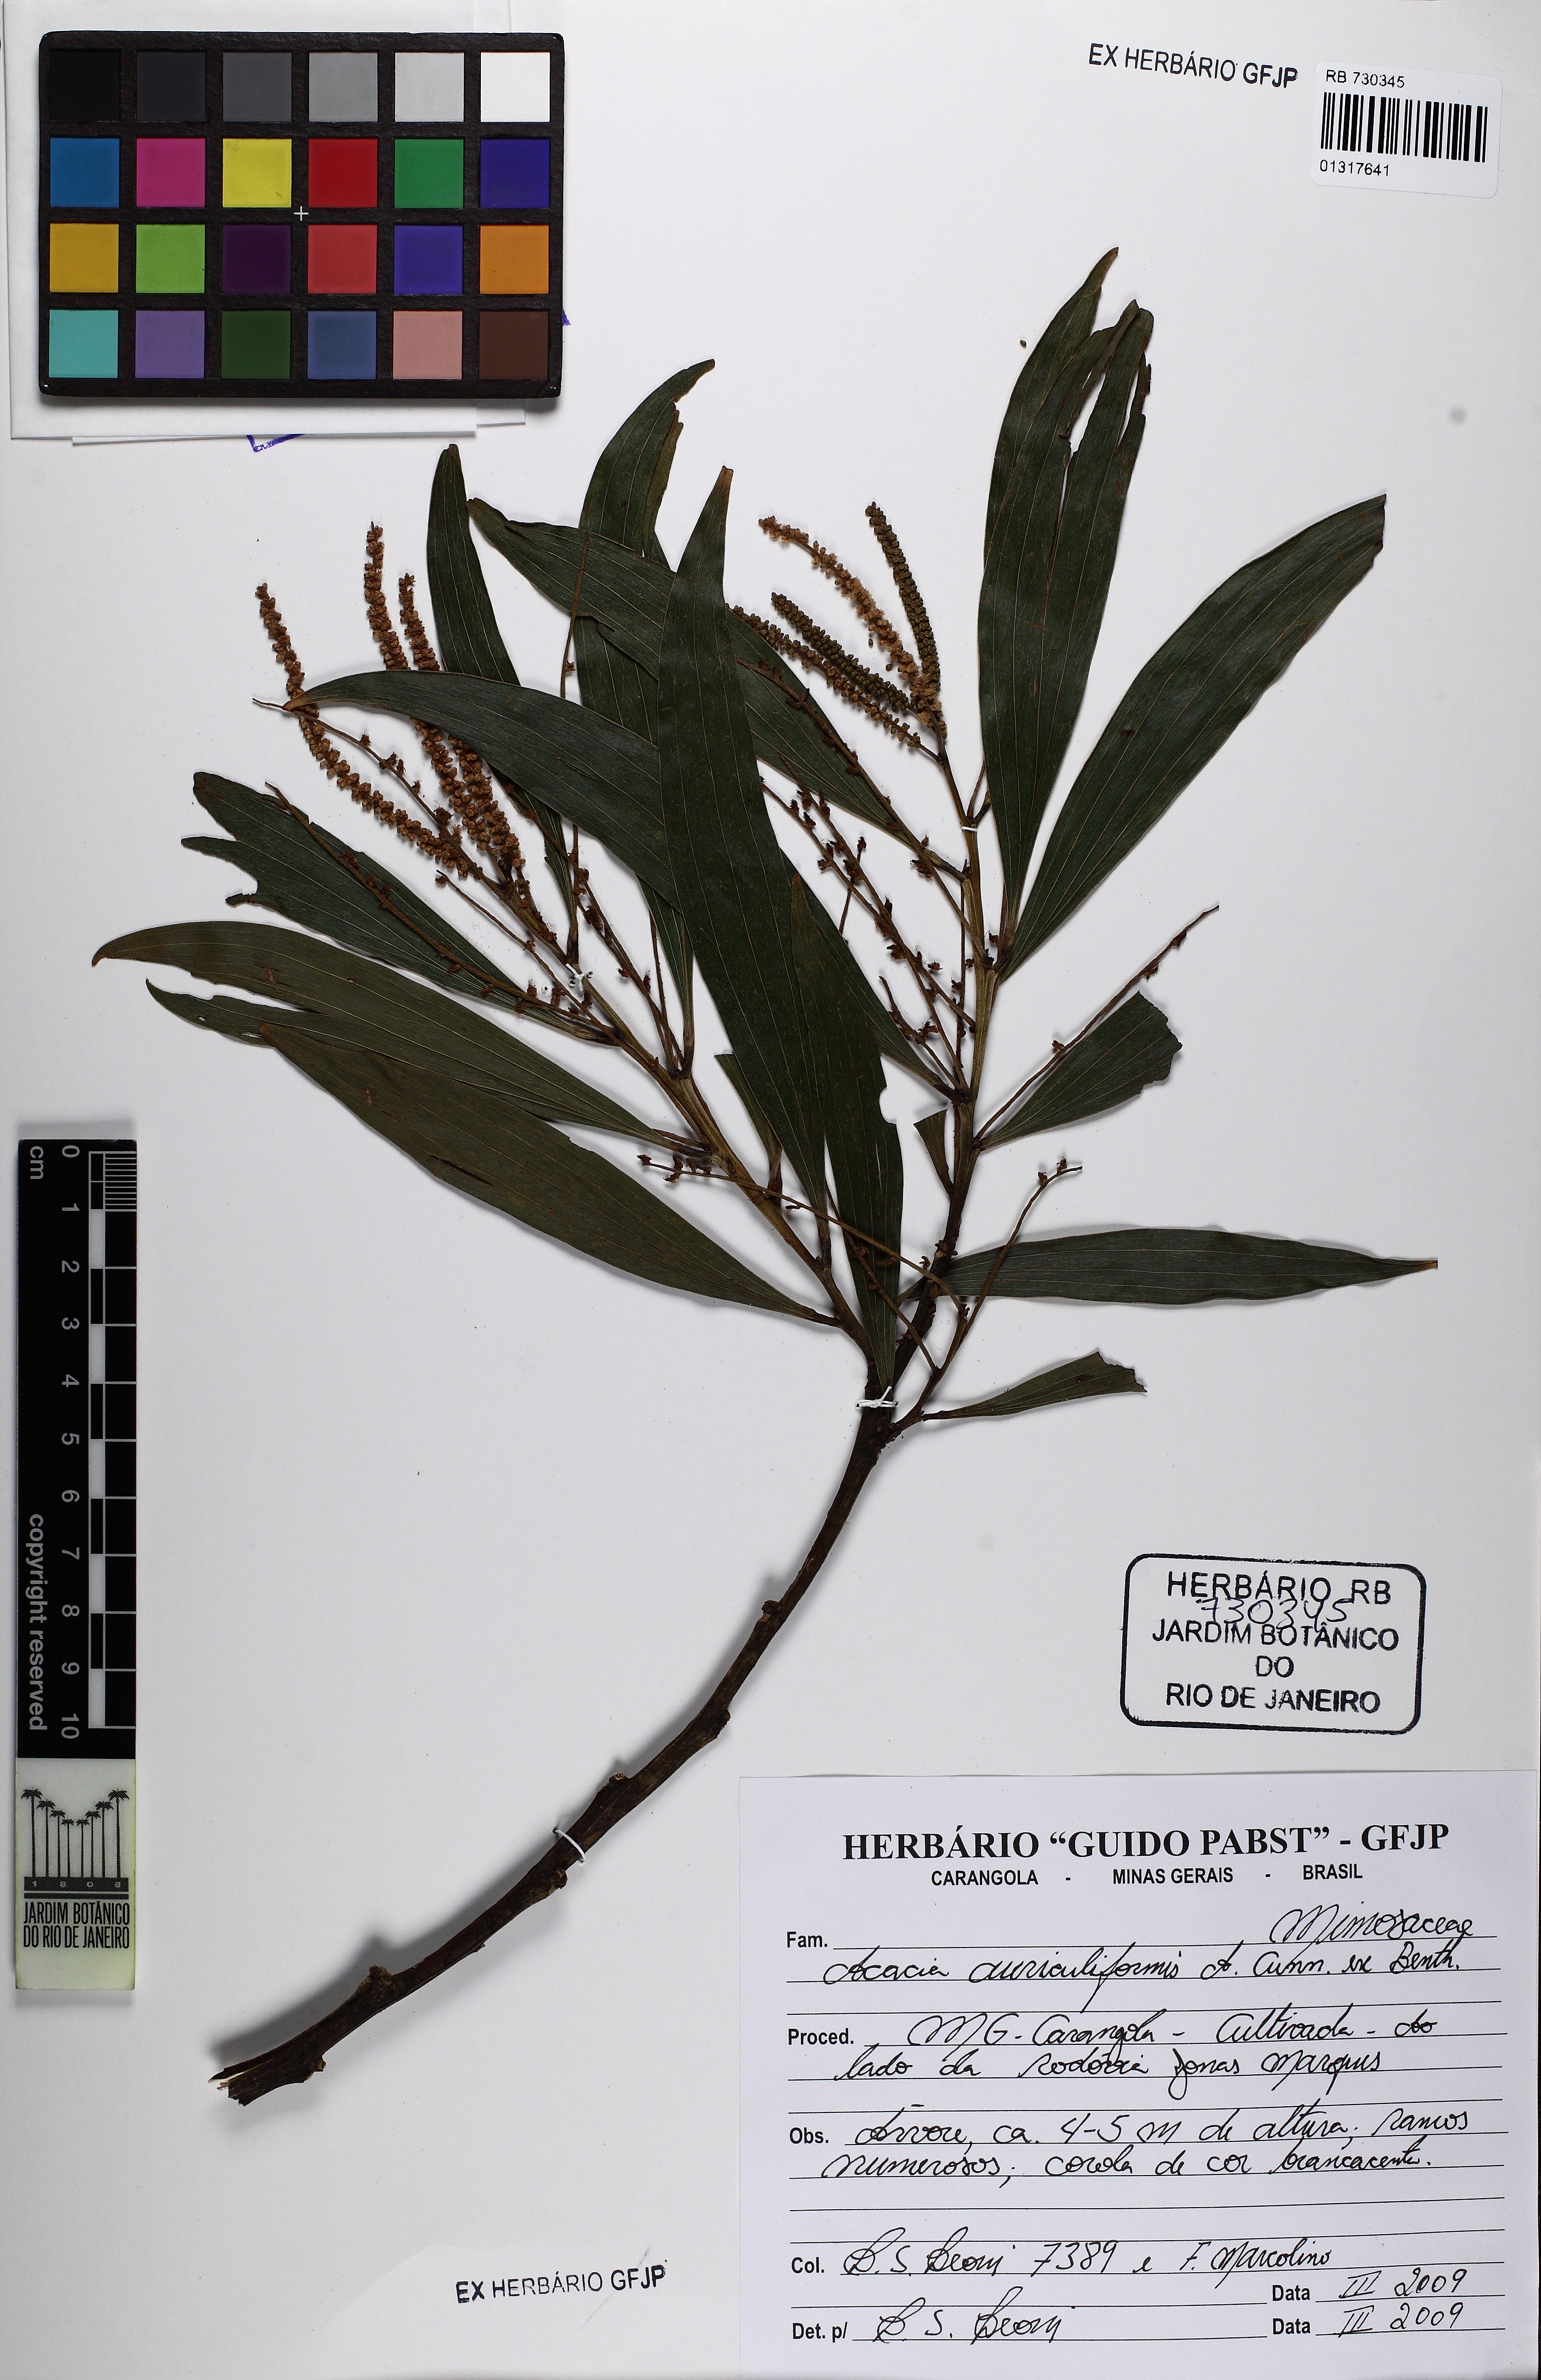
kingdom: Plantae
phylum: Tracheophyta
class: Magnoliopsida
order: Fabales
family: Fabaceae
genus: Acacia
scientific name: Acacia auriculiformis
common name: Earleaf acacia
